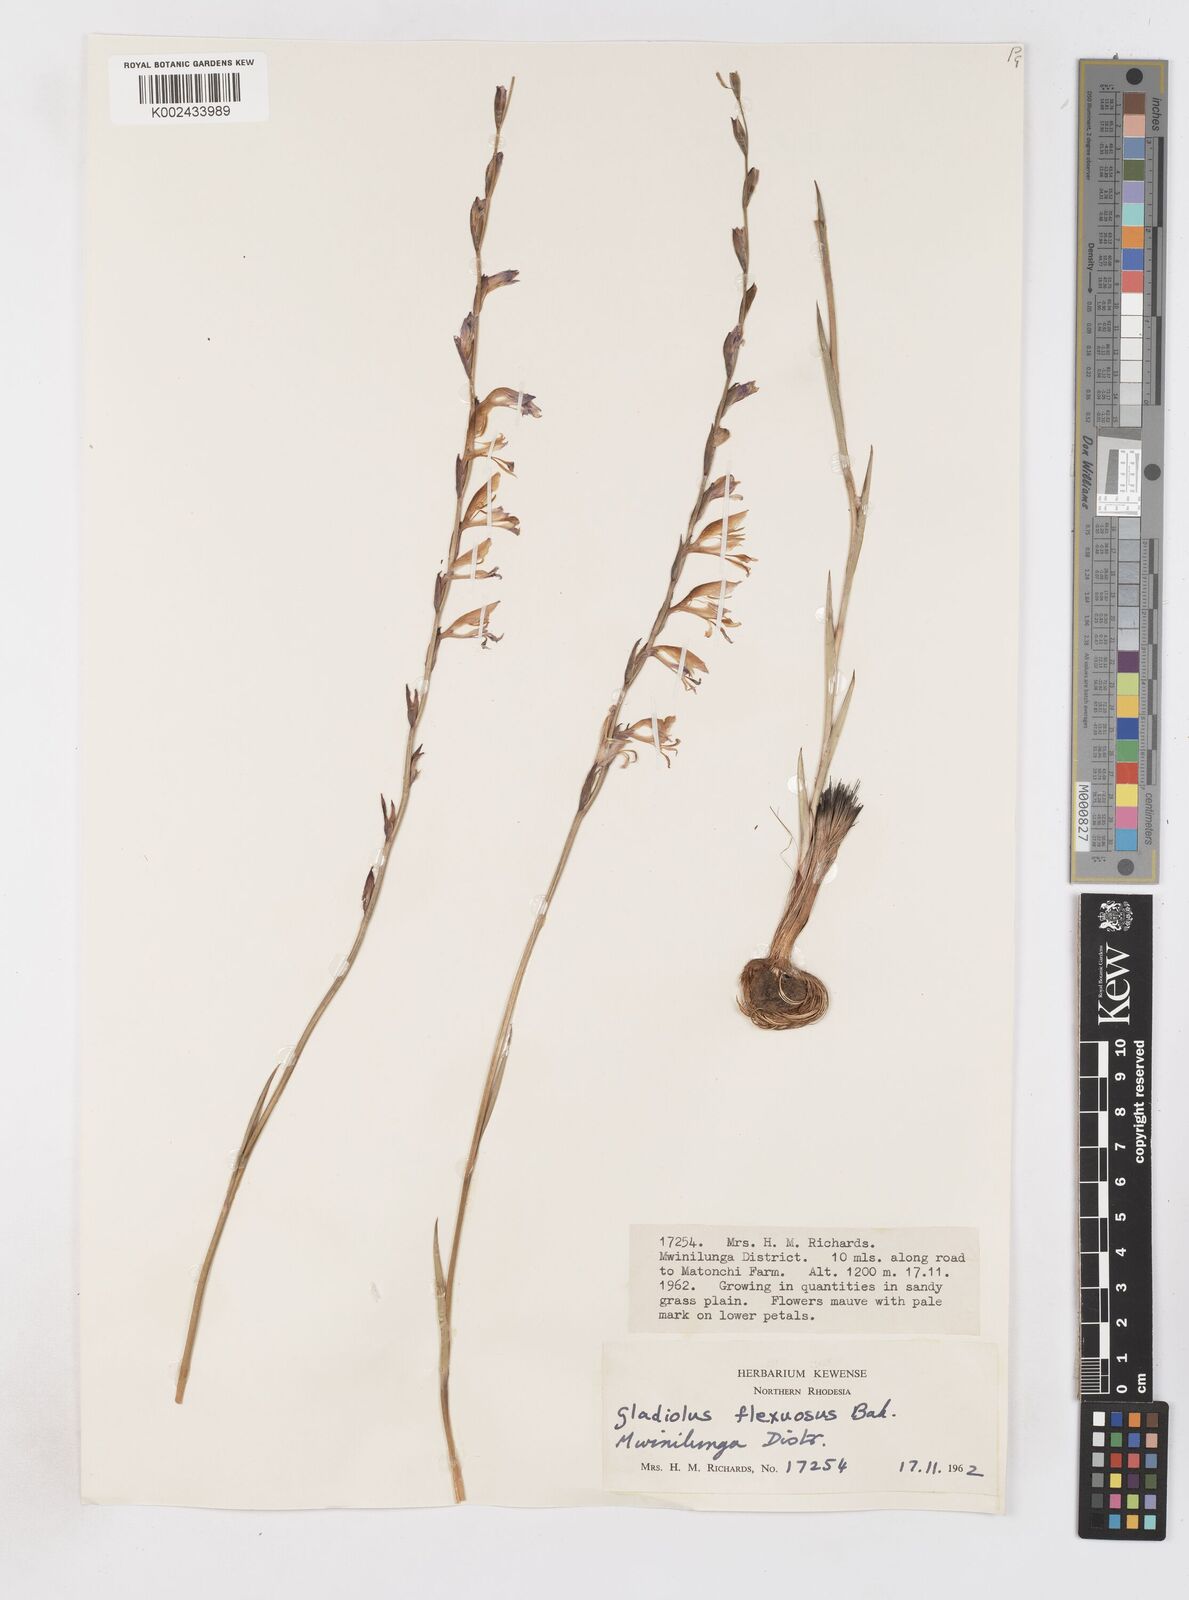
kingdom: Plantae
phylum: Tracheophyta
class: Liliopsida
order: Asparagales
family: Iridaceae
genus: Gladiolus
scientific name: Gladiolus atropurpureus
